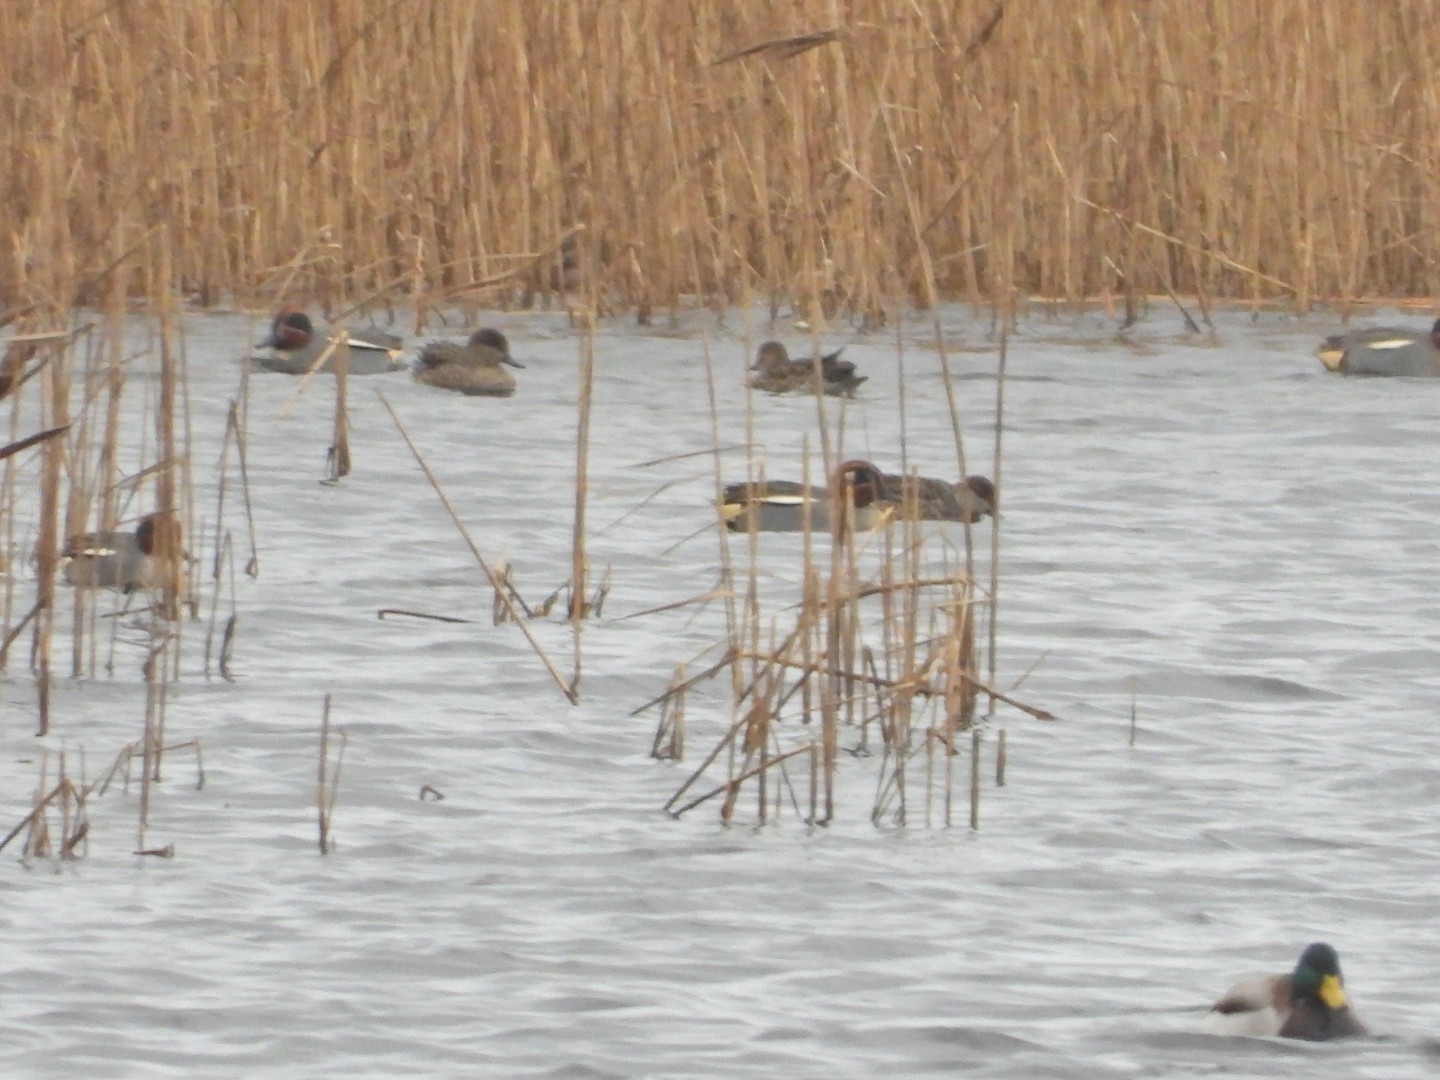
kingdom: Animalia
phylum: Chordata
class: Aves
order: Anseriformes
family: Anatidae
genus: Anas
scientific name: Anas crecca
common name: Krikand
